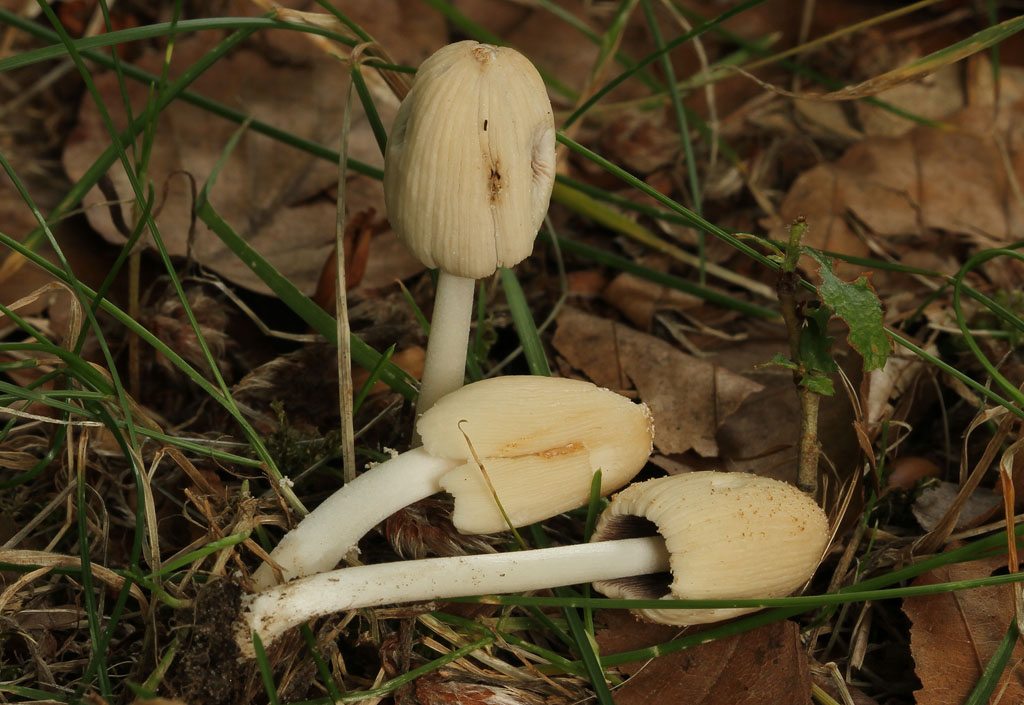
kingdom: Fungi
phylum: Basidiomycota
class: Agaricomycetes
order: Agaricales
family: Psathyrellaceae
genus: Coprinellus
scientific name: Coprinellus domesticus
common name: hus-blækhat
